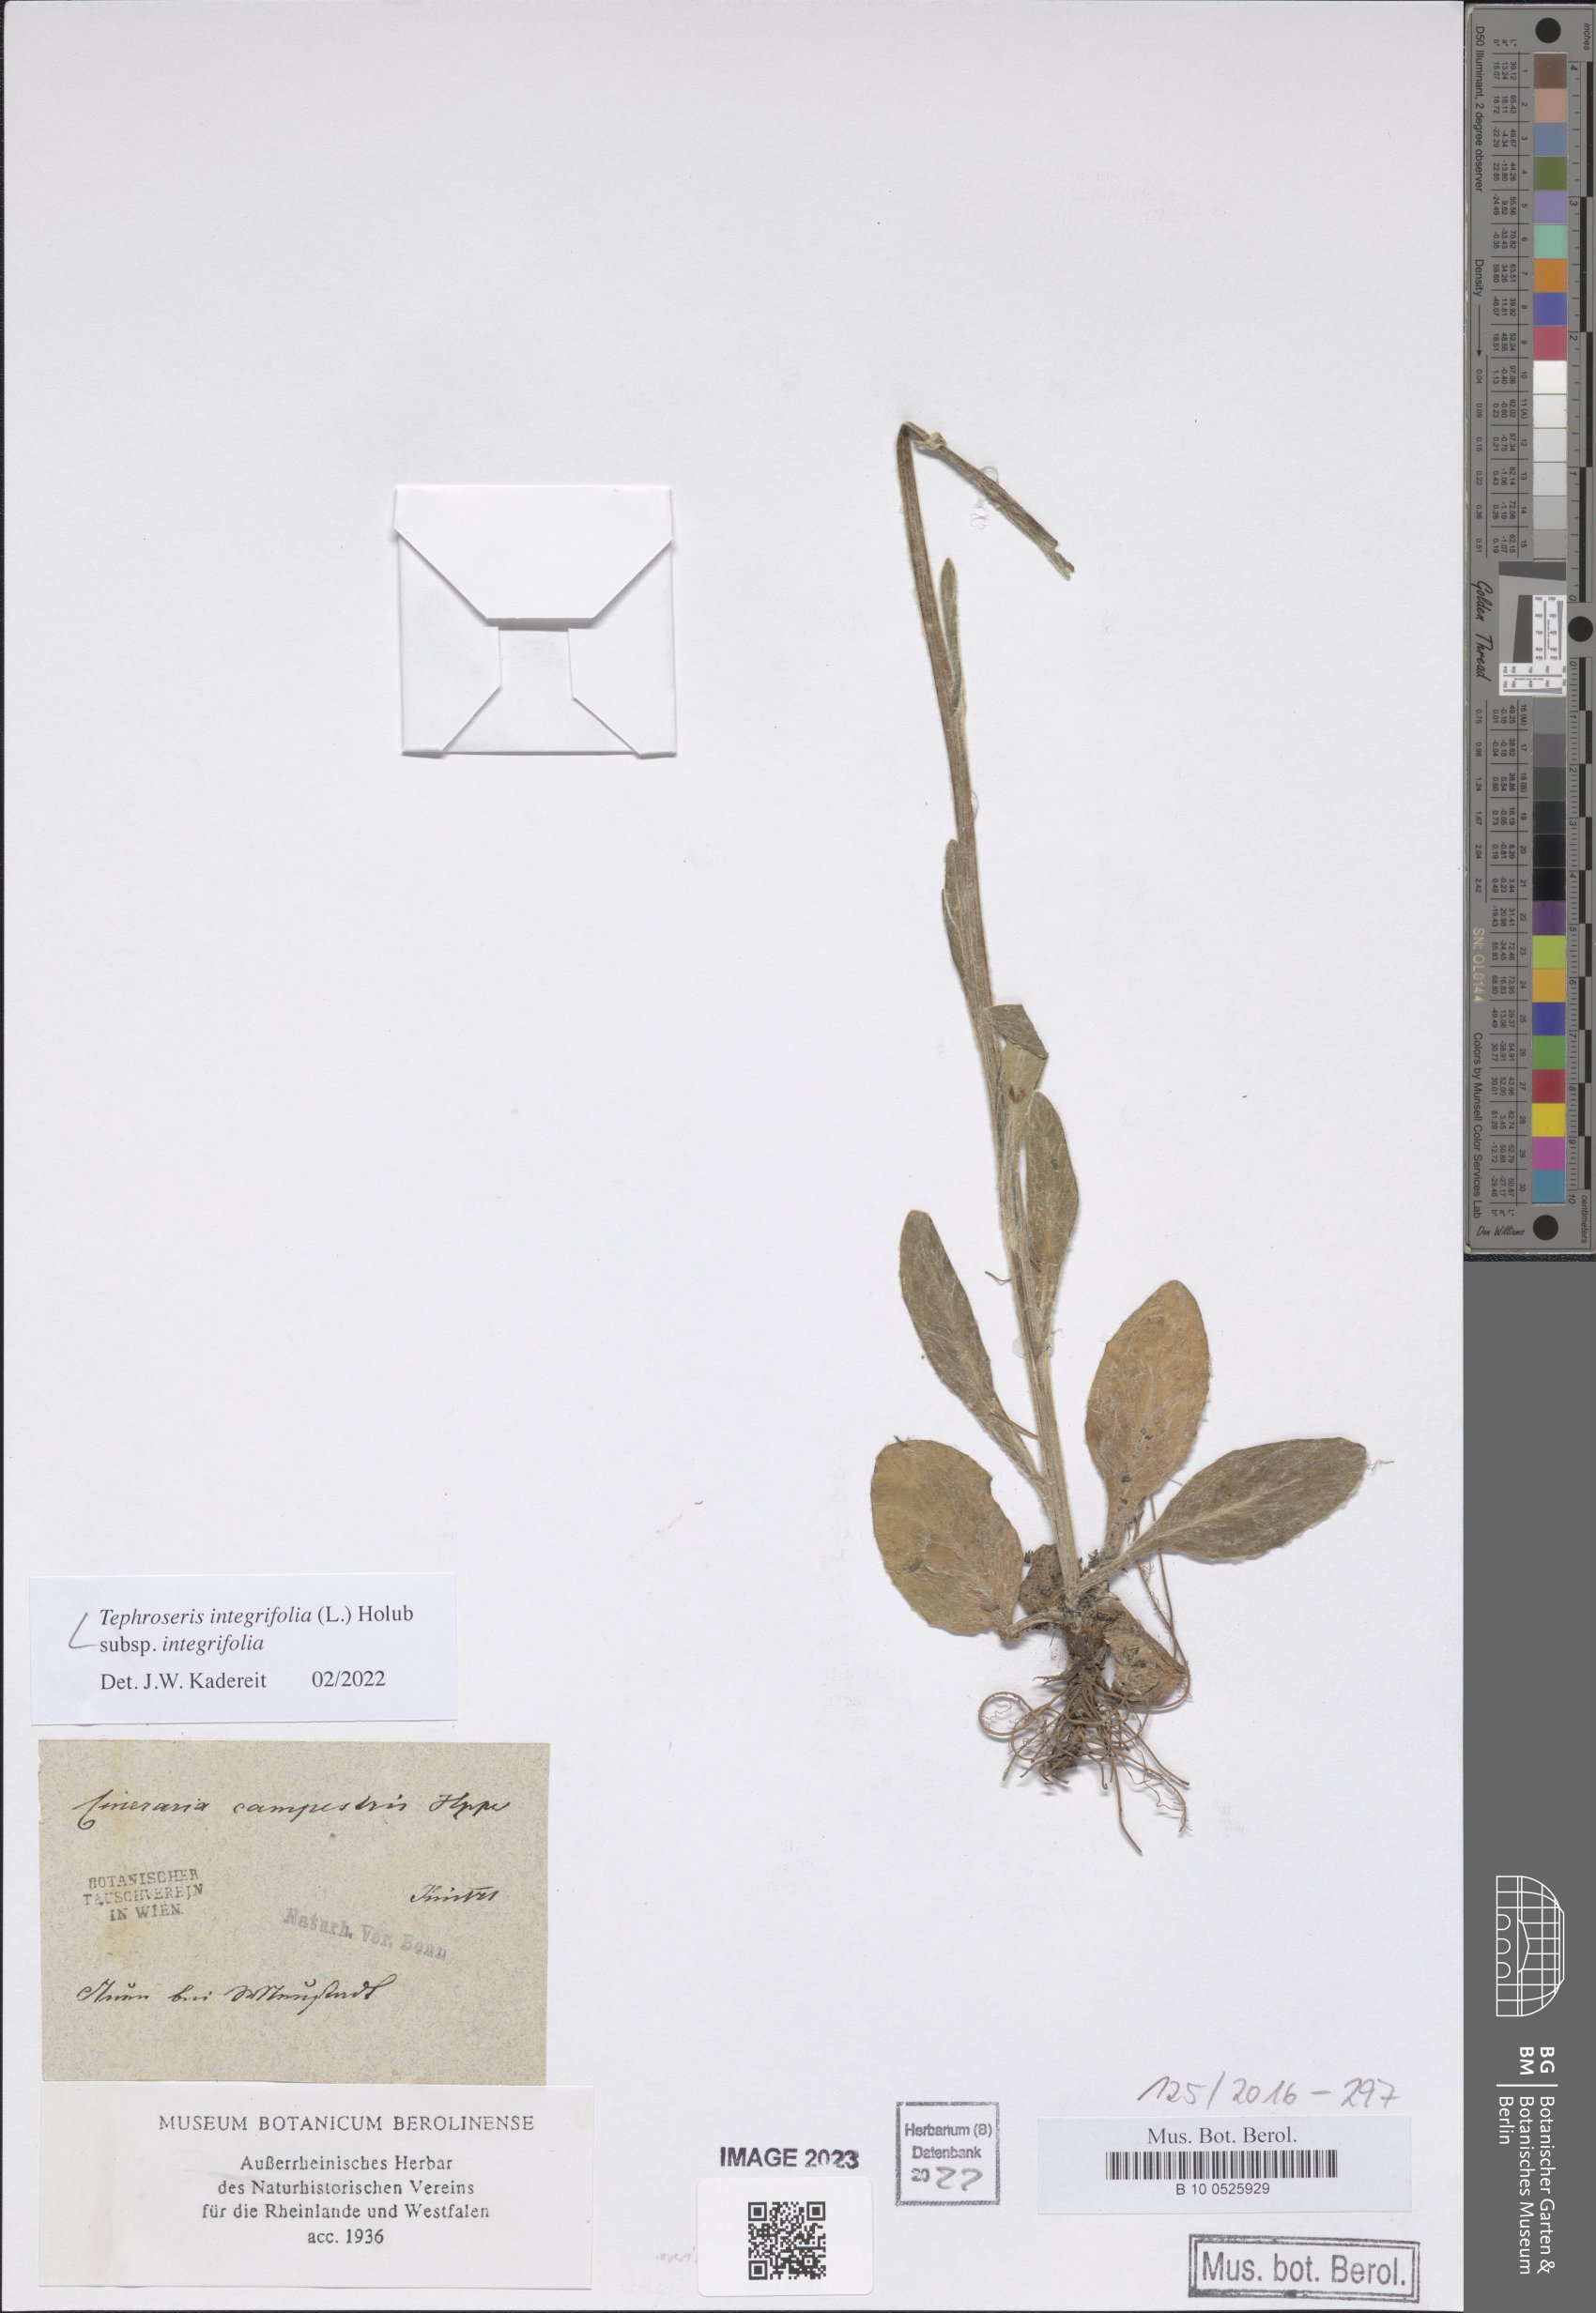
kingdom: Plantae
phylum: Tracheophyta
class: Magnoliopsida
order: Asterales
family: Asteraceae
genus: Tephroseris
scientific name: Tephroseris integrifolia
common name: Field fleawort
